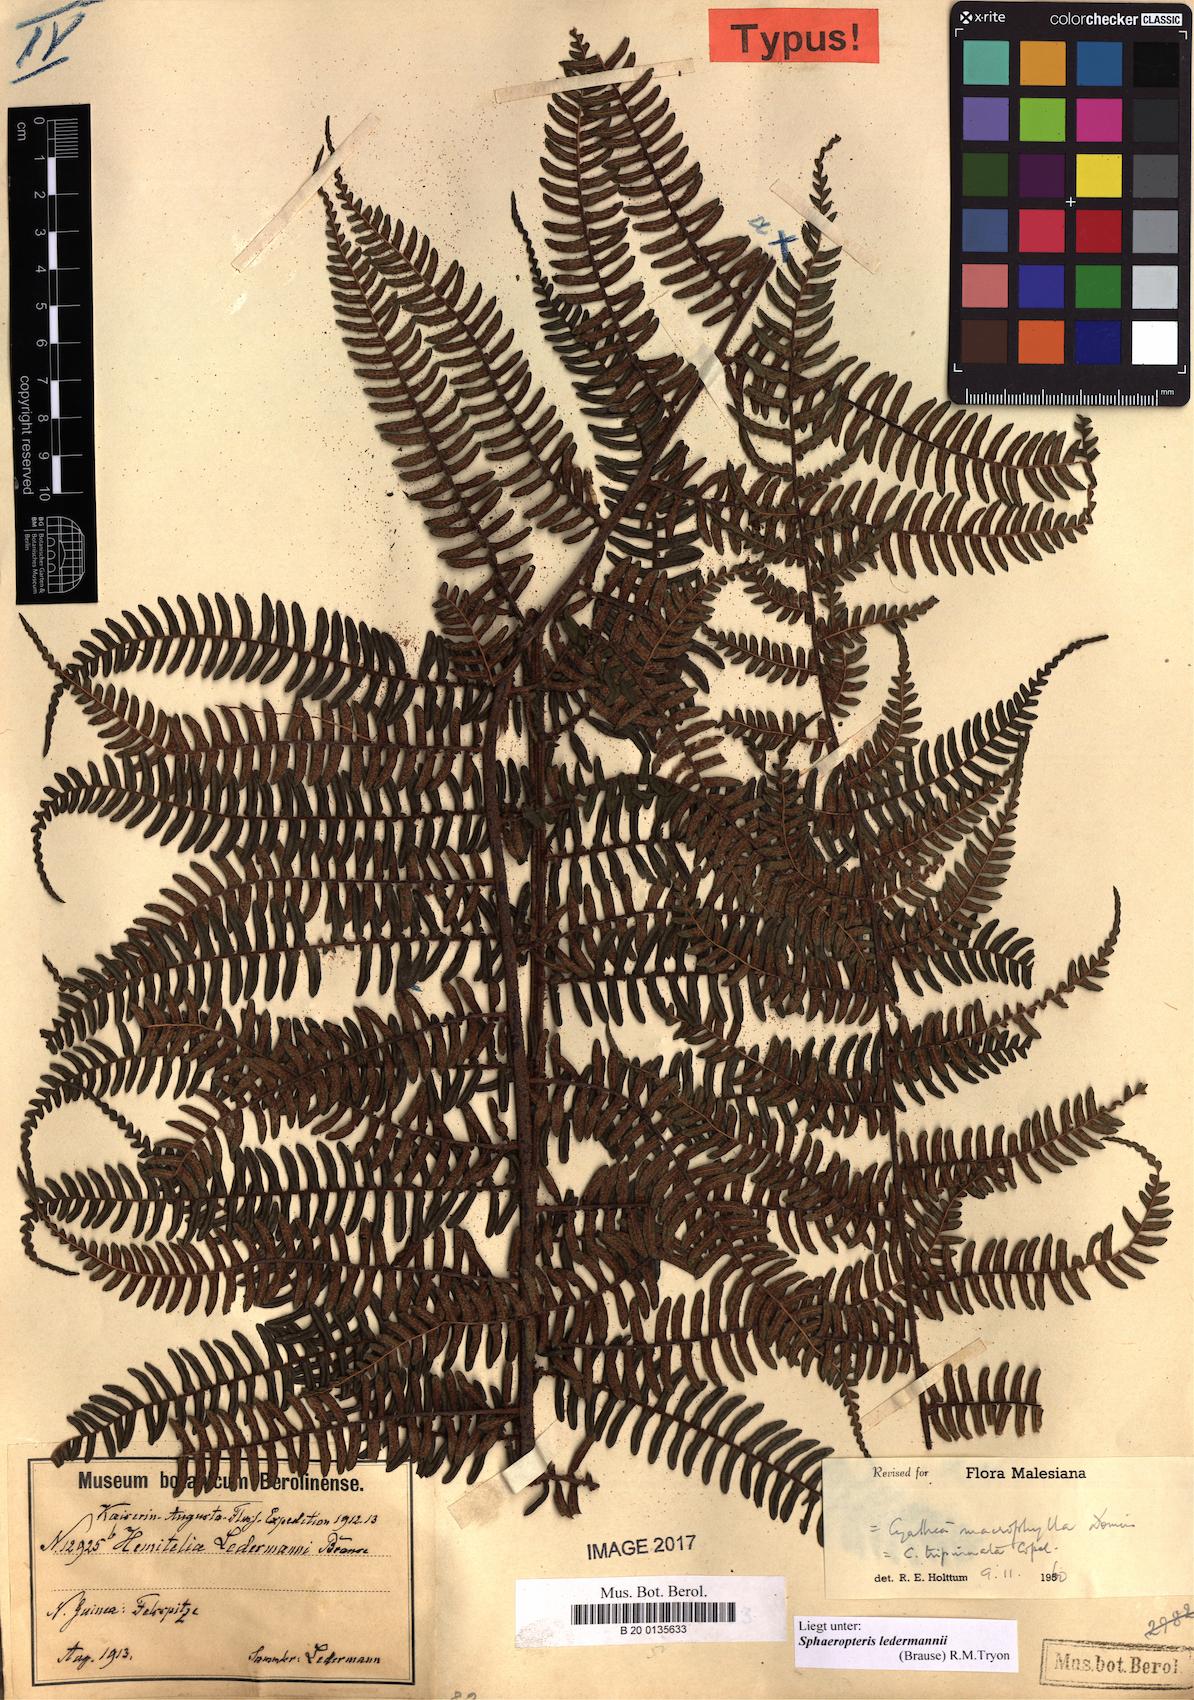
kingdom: Plantae
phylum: Tracheophyta
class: Polypodiopsida
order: Cyatheales
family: Cyatheaceae
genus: Sphaeropteris
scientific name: Sphaeropteris ledermannii
